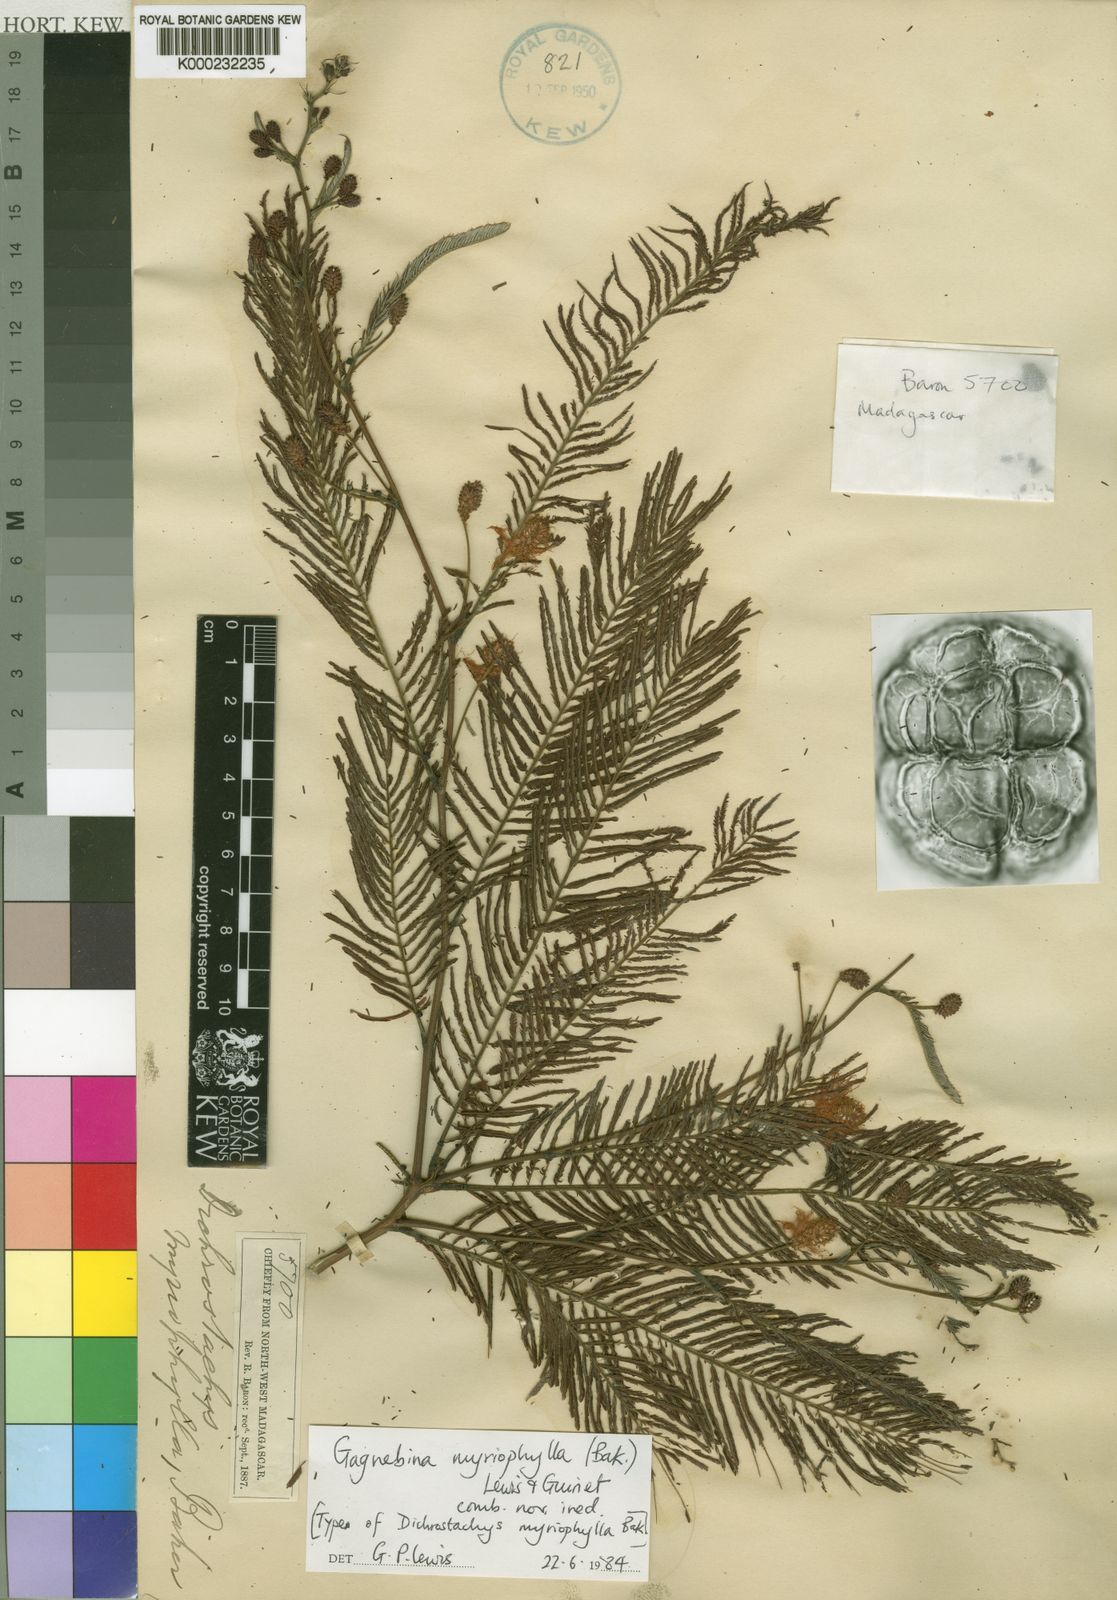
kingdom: Plantae
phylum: Tracheophyta
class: Magnoliopsida
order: Fabales
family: Fabaceae
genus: Dichrostachys
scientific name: Dichrostachys myriophylla
